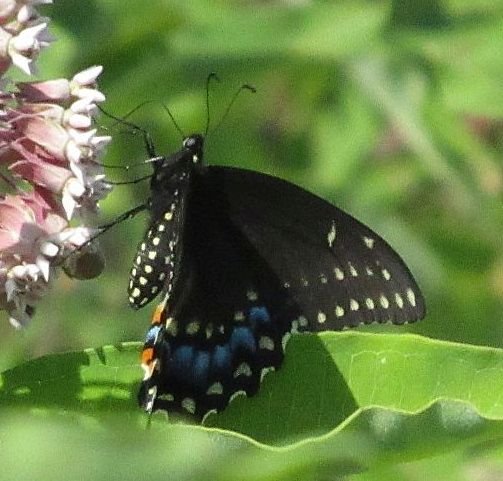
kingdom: Animalia
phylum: Arthropoda
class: Insecta
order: Lepidoptera
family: Papilionidae
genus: Papilio
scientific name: Papilio polyxenes
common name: Black Swallowtail
